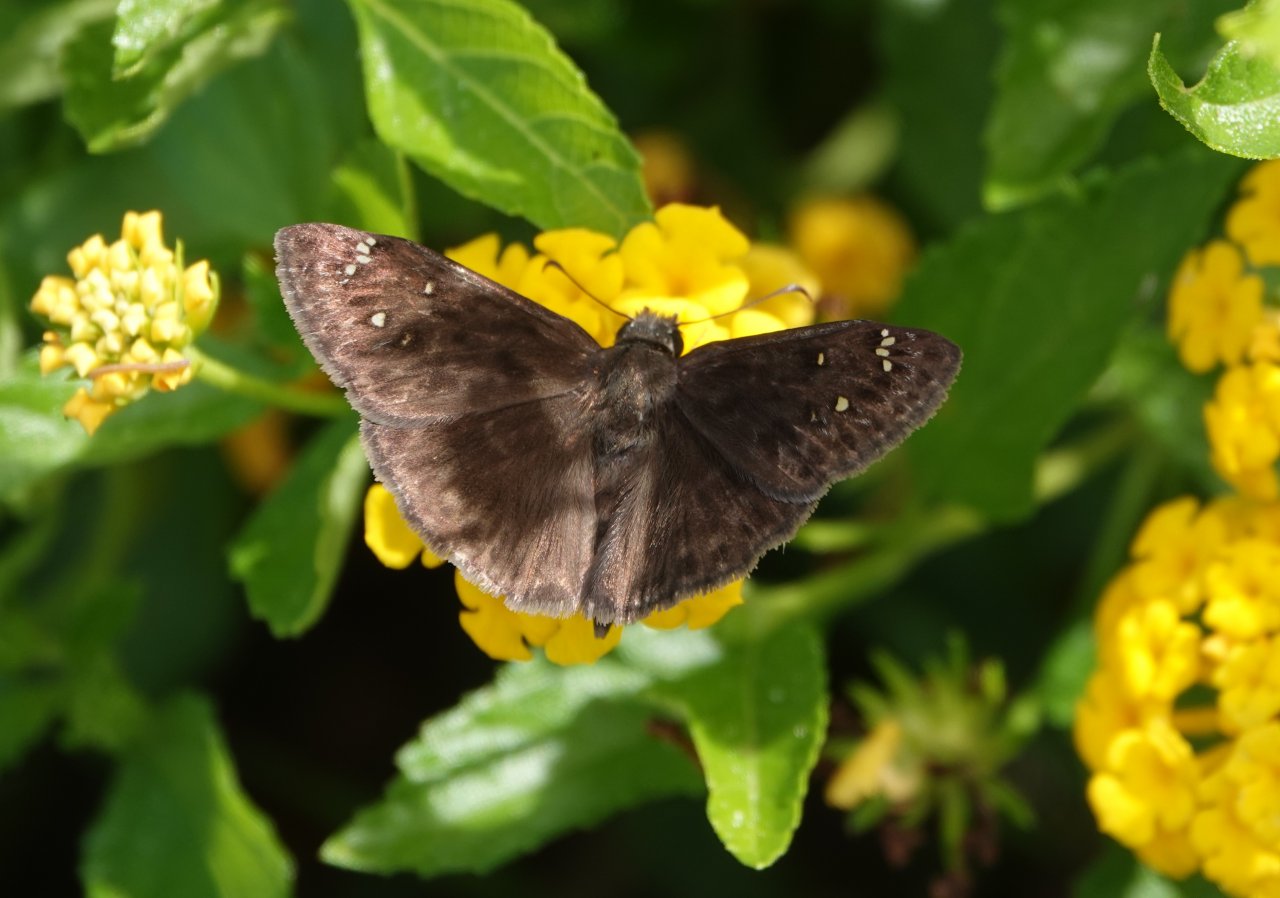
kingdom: Animalia
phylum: Arthropoda
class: Insecta
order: Lepidoptera
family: Hesperiidae
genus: Gesta
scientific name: Gesta
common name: Horace's Duskywing
